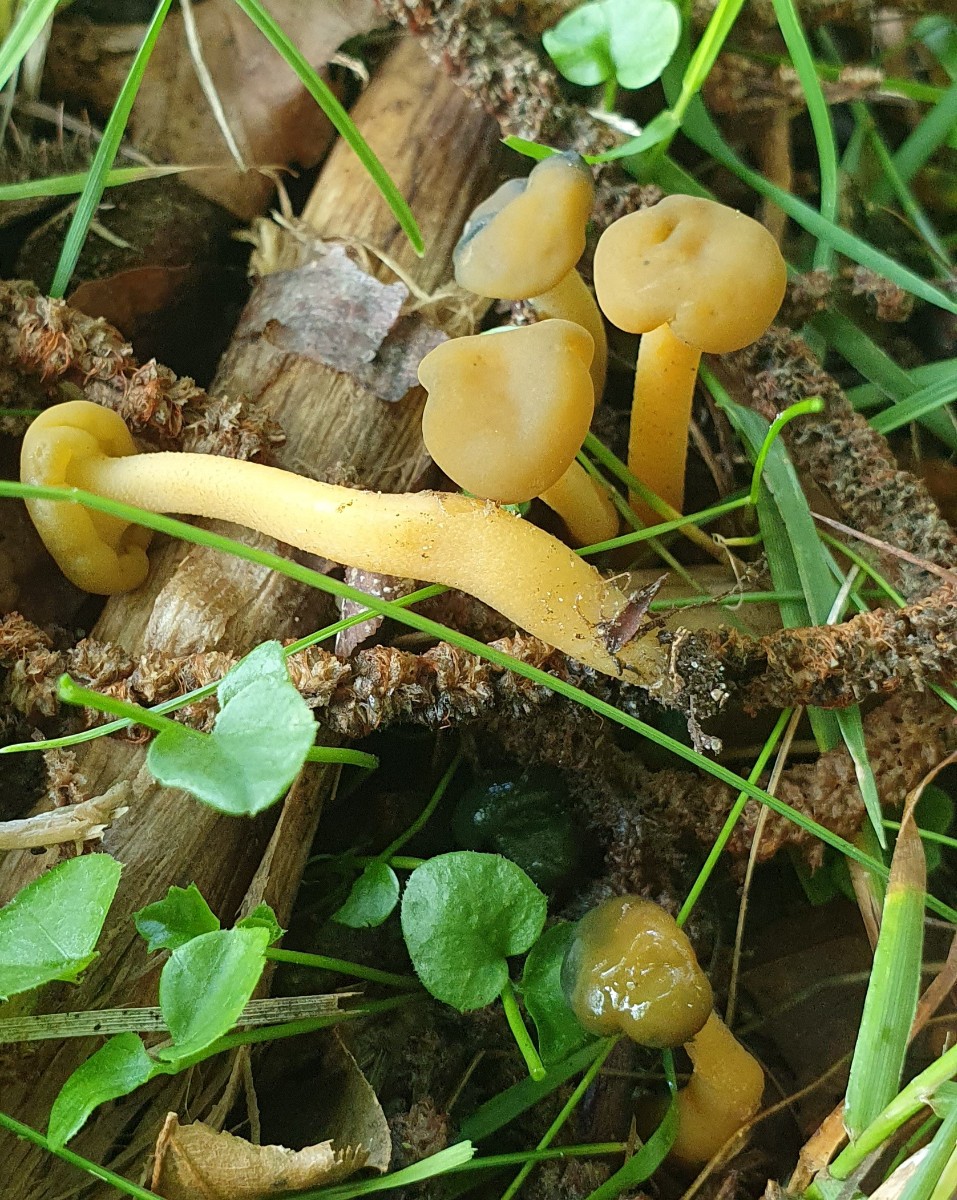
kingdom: Fungi
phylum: Ascomycota
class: Leotiomycetes
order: Leotiales
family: Leotiaceae
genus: Leotia
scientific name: Leotia lubrica
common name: ravsvamp
